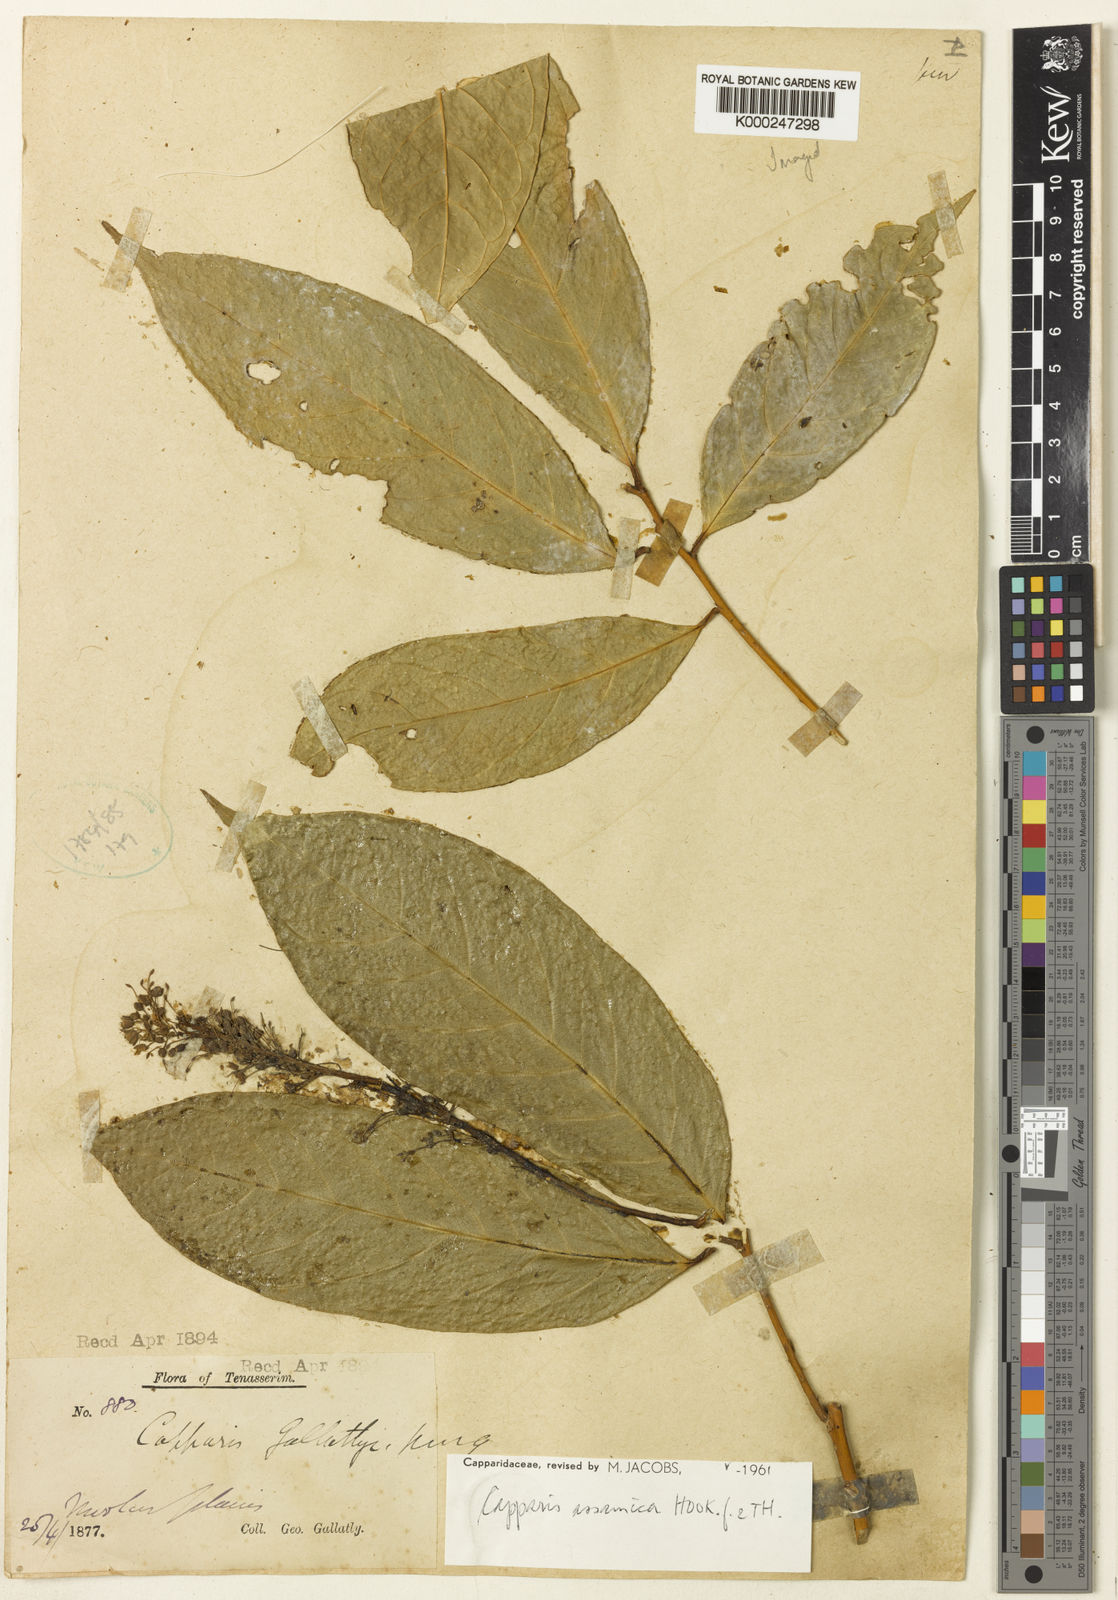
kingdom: Plantae
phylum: Tracheophyta
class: Magnoliopsida
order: Brassicales
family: Capparaceae
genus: Capparis
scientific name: Capparis assamica
